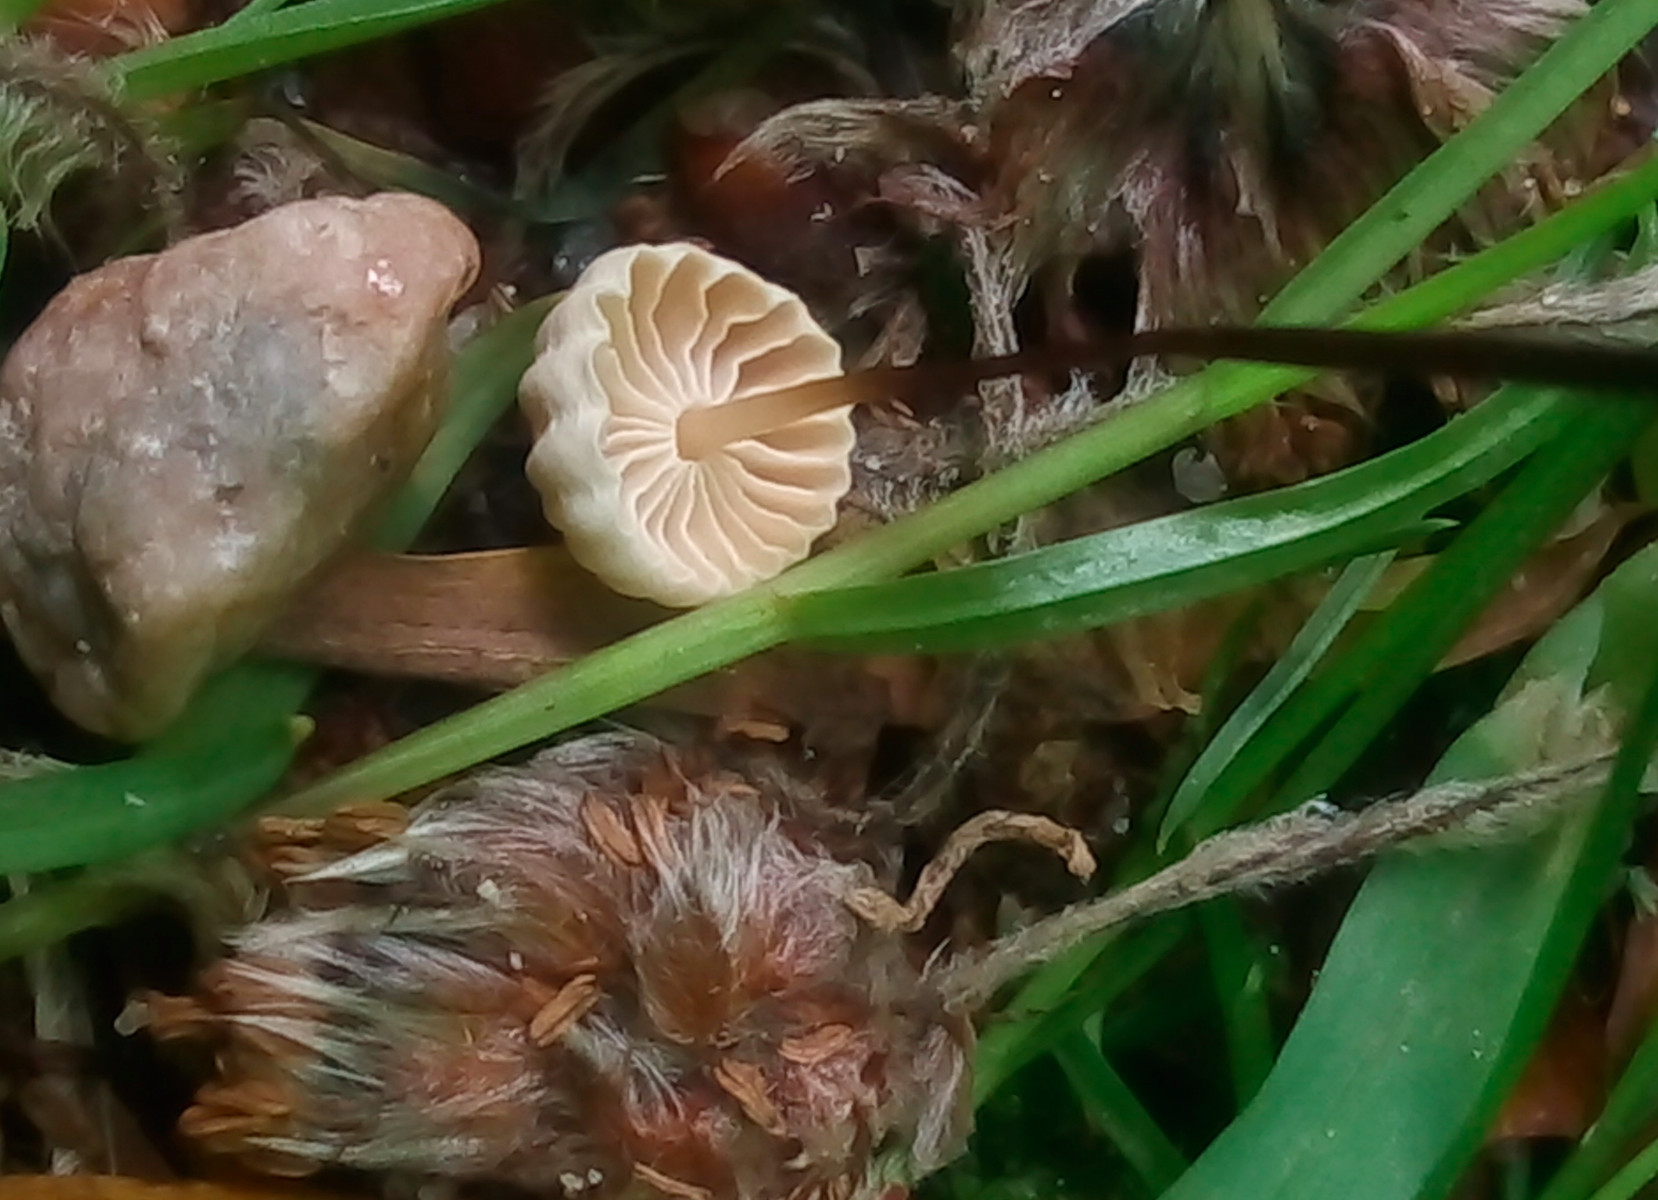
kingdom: Fungi
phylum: Basidiomycota
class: Agaricomycetes
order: Agaricales
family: Marasmiaceae
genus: Marasmius
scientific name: Marasmius rotula
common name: hjul-bruskhat
